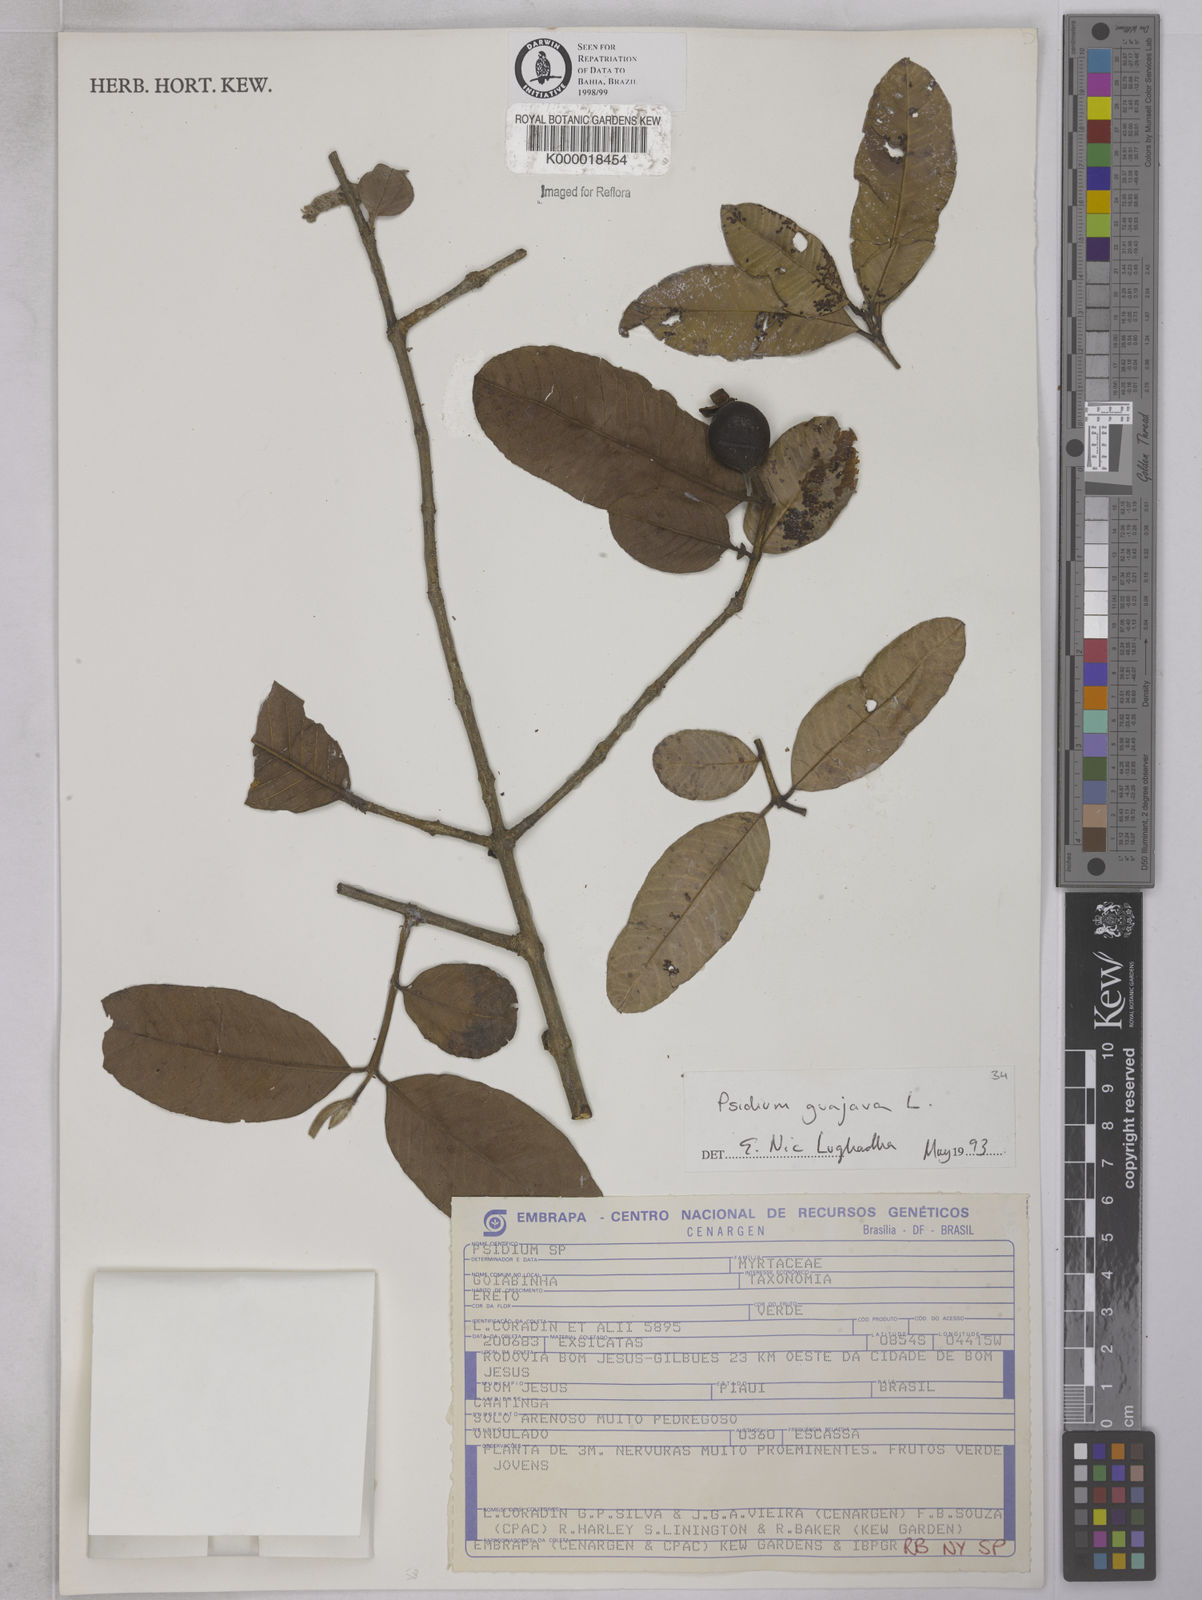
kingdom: Plantae
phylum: Tracheophyta
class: Magnoliopsida
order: Myrtales
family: Myrtaceae
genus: Psidium
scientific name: Psidium guajava
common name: Guava
